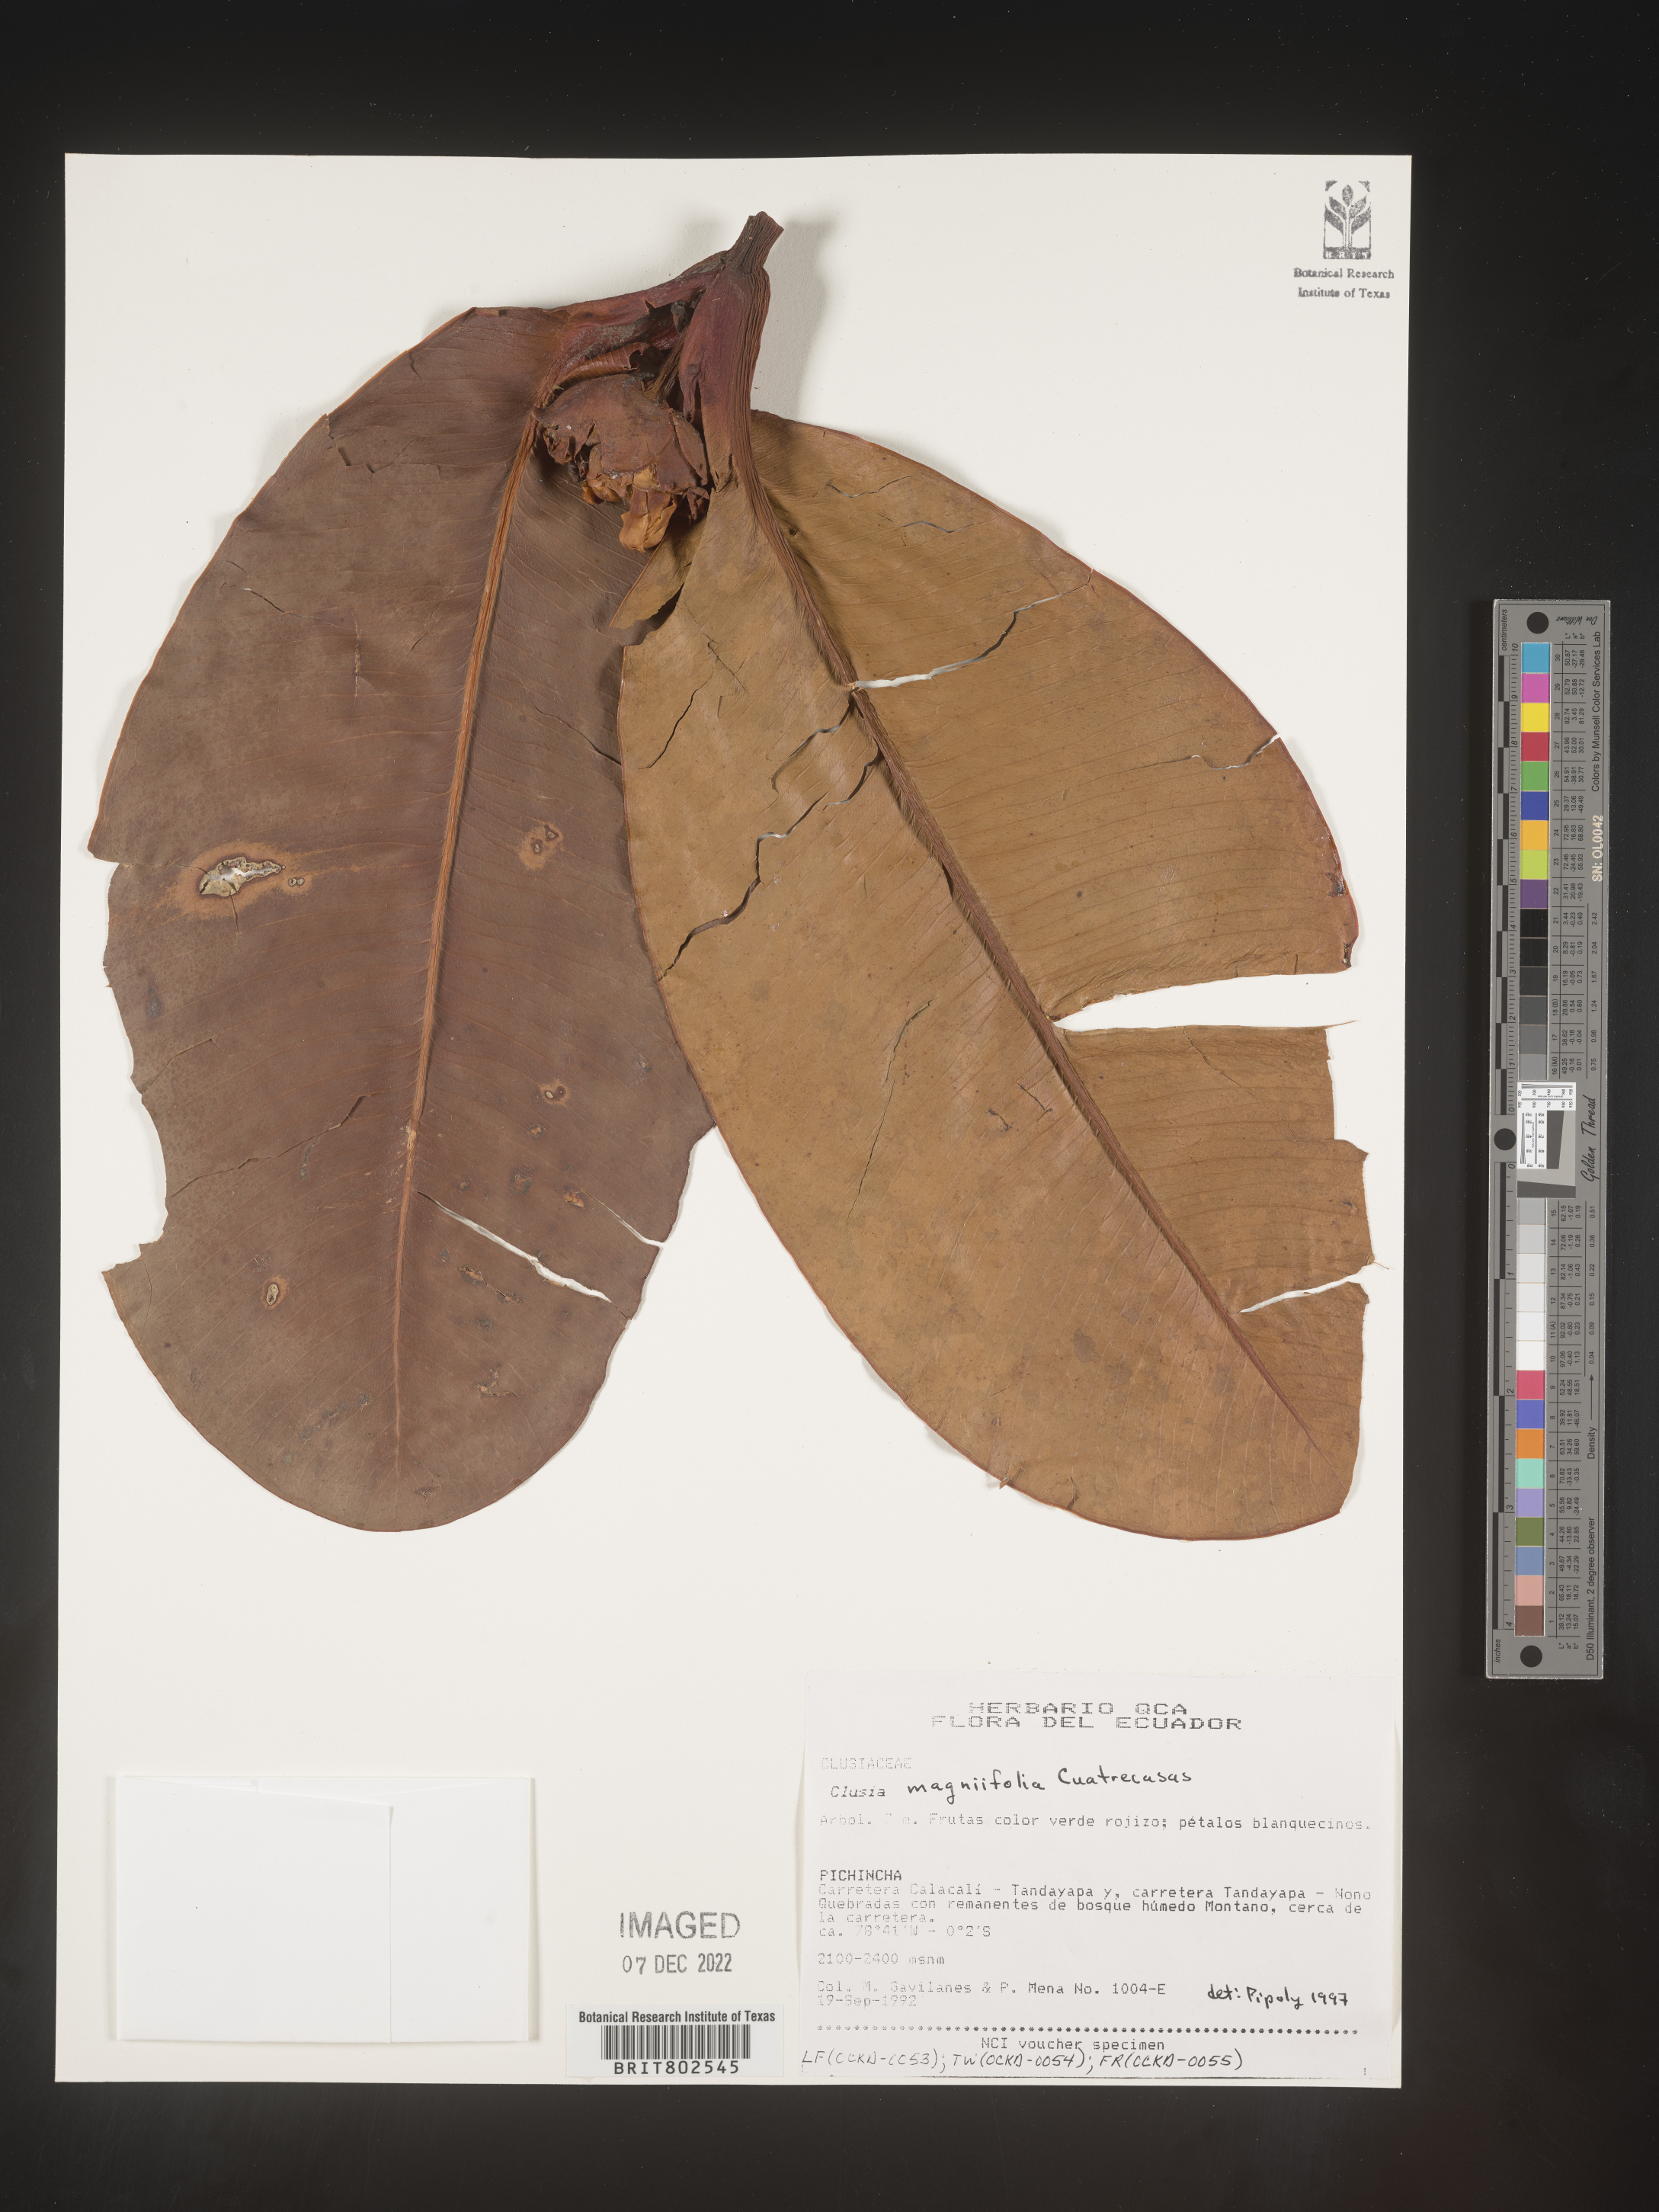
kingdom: Plantae
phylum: Tracheophyta
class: Magnoliopsida
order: Malpighiales
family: Clusiaceae
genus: Clusia
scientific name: Clusia magnifolia
